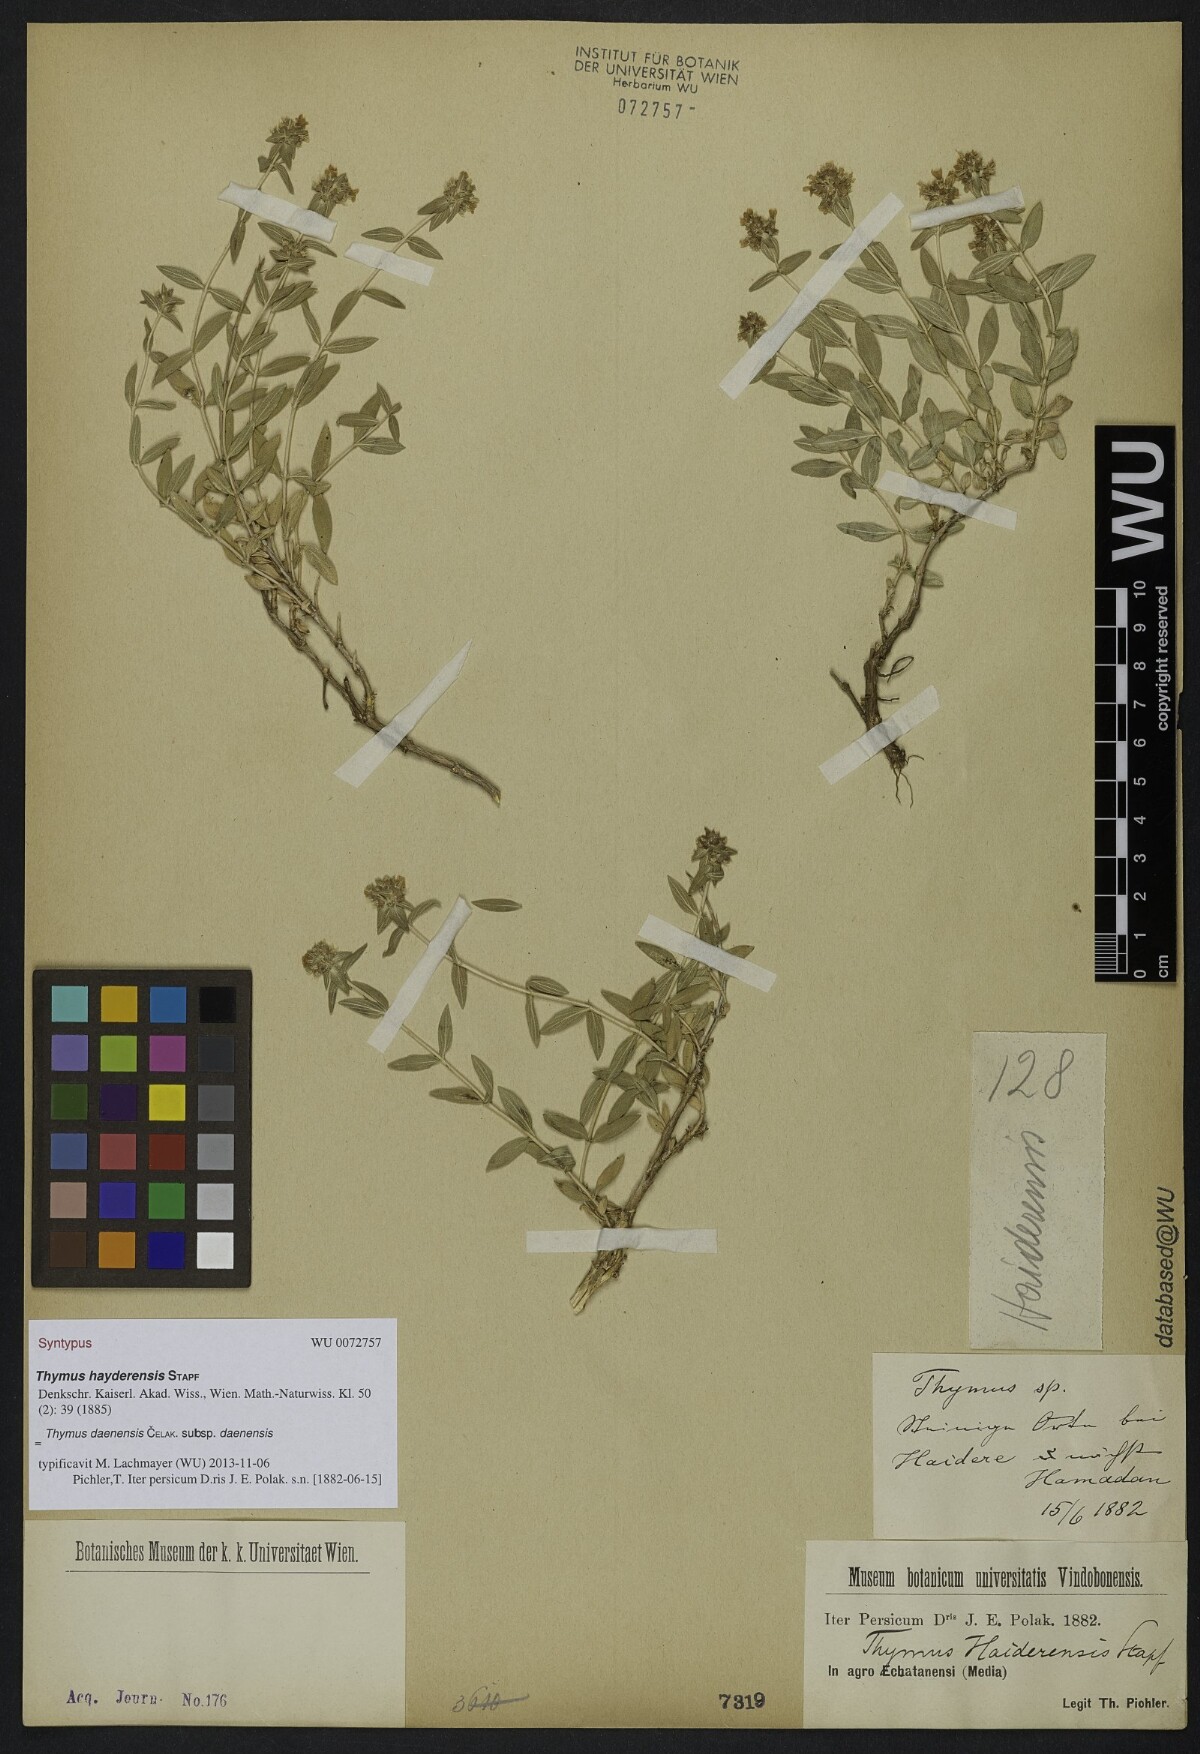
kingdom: Plantae
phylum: Tracheophyta
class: Magnoliopsida
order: Lamiales
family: Lamiaceae
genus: Thymus
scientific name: Thymus daenensis
